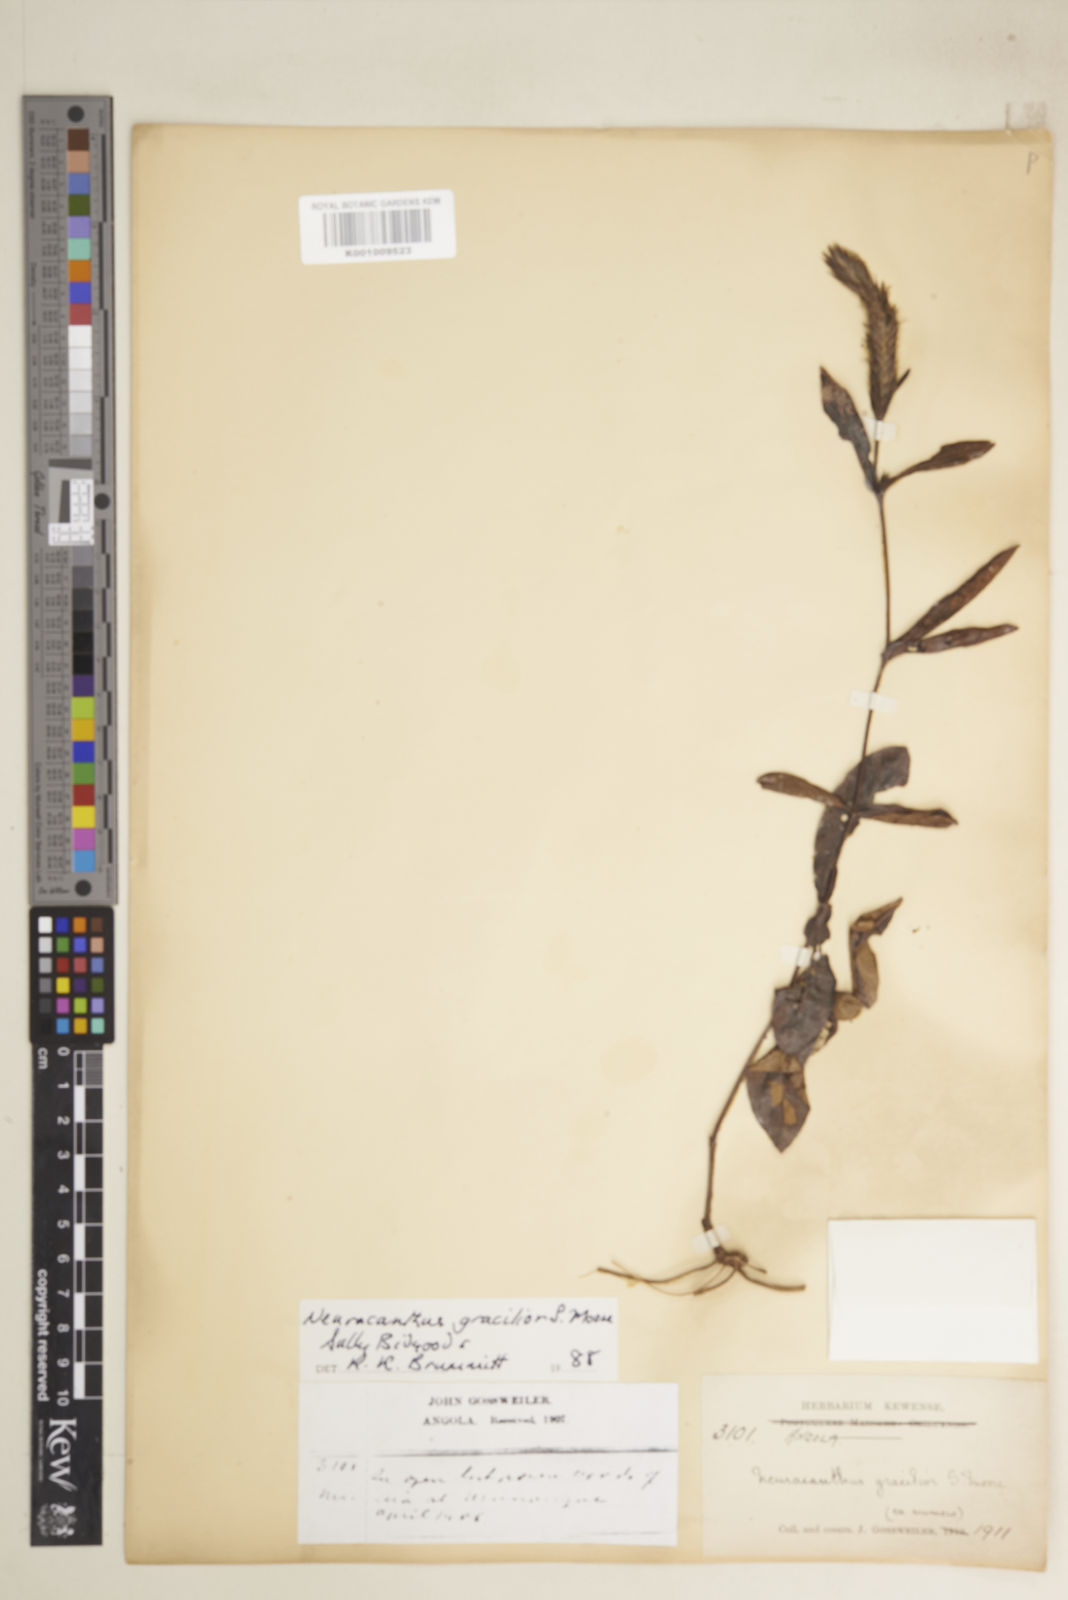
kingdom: Plantae
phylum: Tracheophyta
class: Magnoliopsida
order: Lamiales
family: Acanthaceae
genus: Neuracanthus
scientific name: Neuracanthus gracilior
